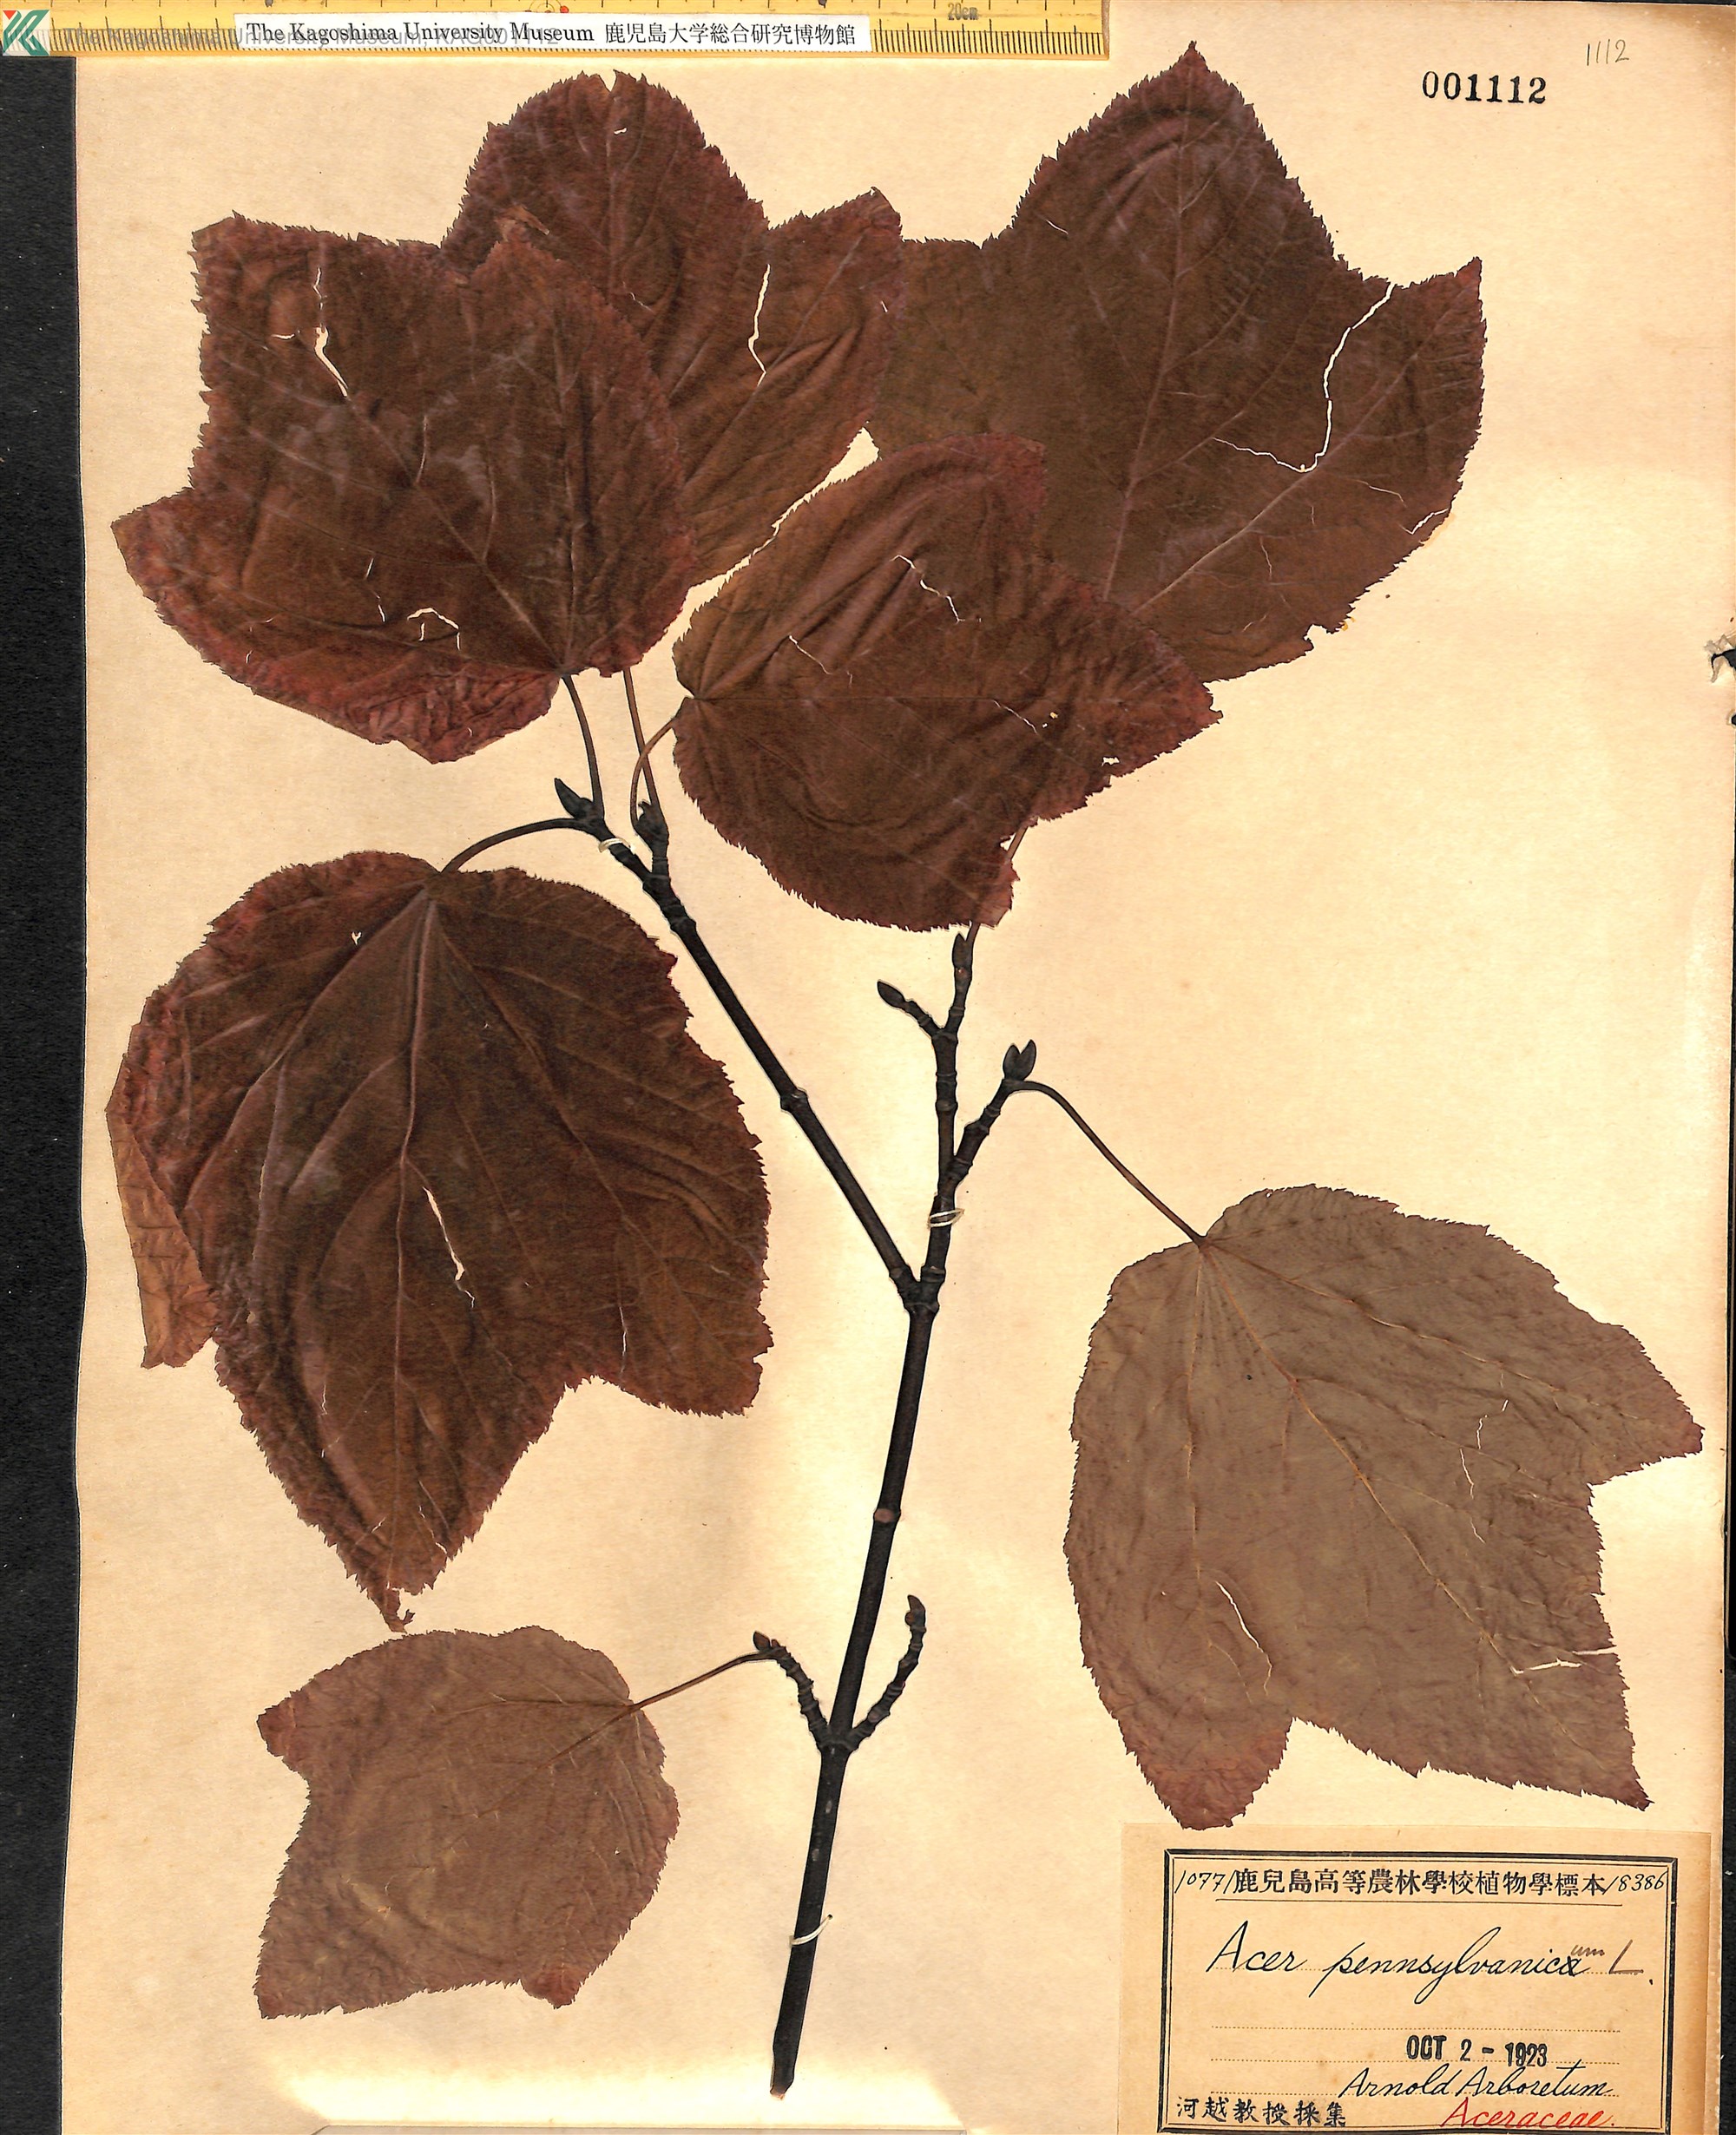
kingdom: Plantae
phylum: Tracheophyta
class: Magnoliopsida
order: Sapindales
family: Sapindaceae
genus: Acer
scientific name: Acer pensylvanicum
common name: Moosewood
